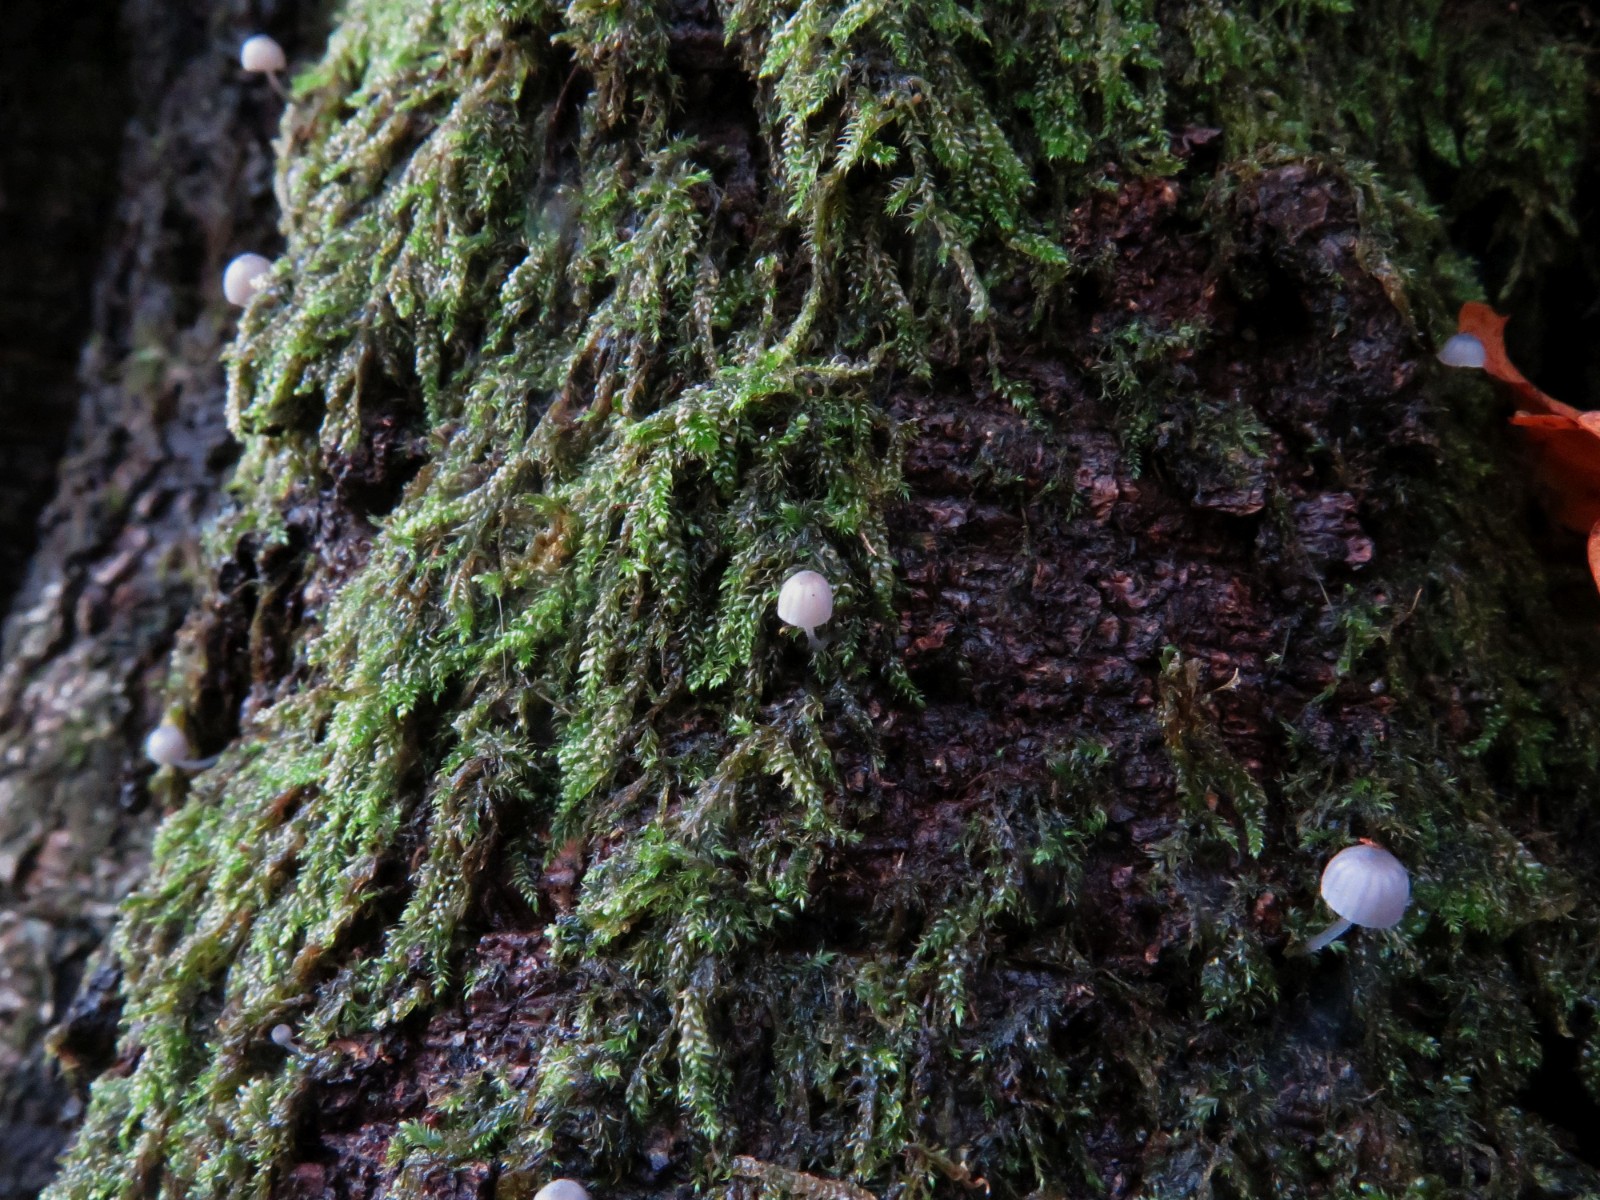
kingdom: Fungi
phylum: Basidiomycota
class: Agaricomycetes
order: Agaricales
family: Mycenaceae
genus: Mycena
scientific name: Mycena pseudocorticola
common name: gråblå bark-huesvamp
